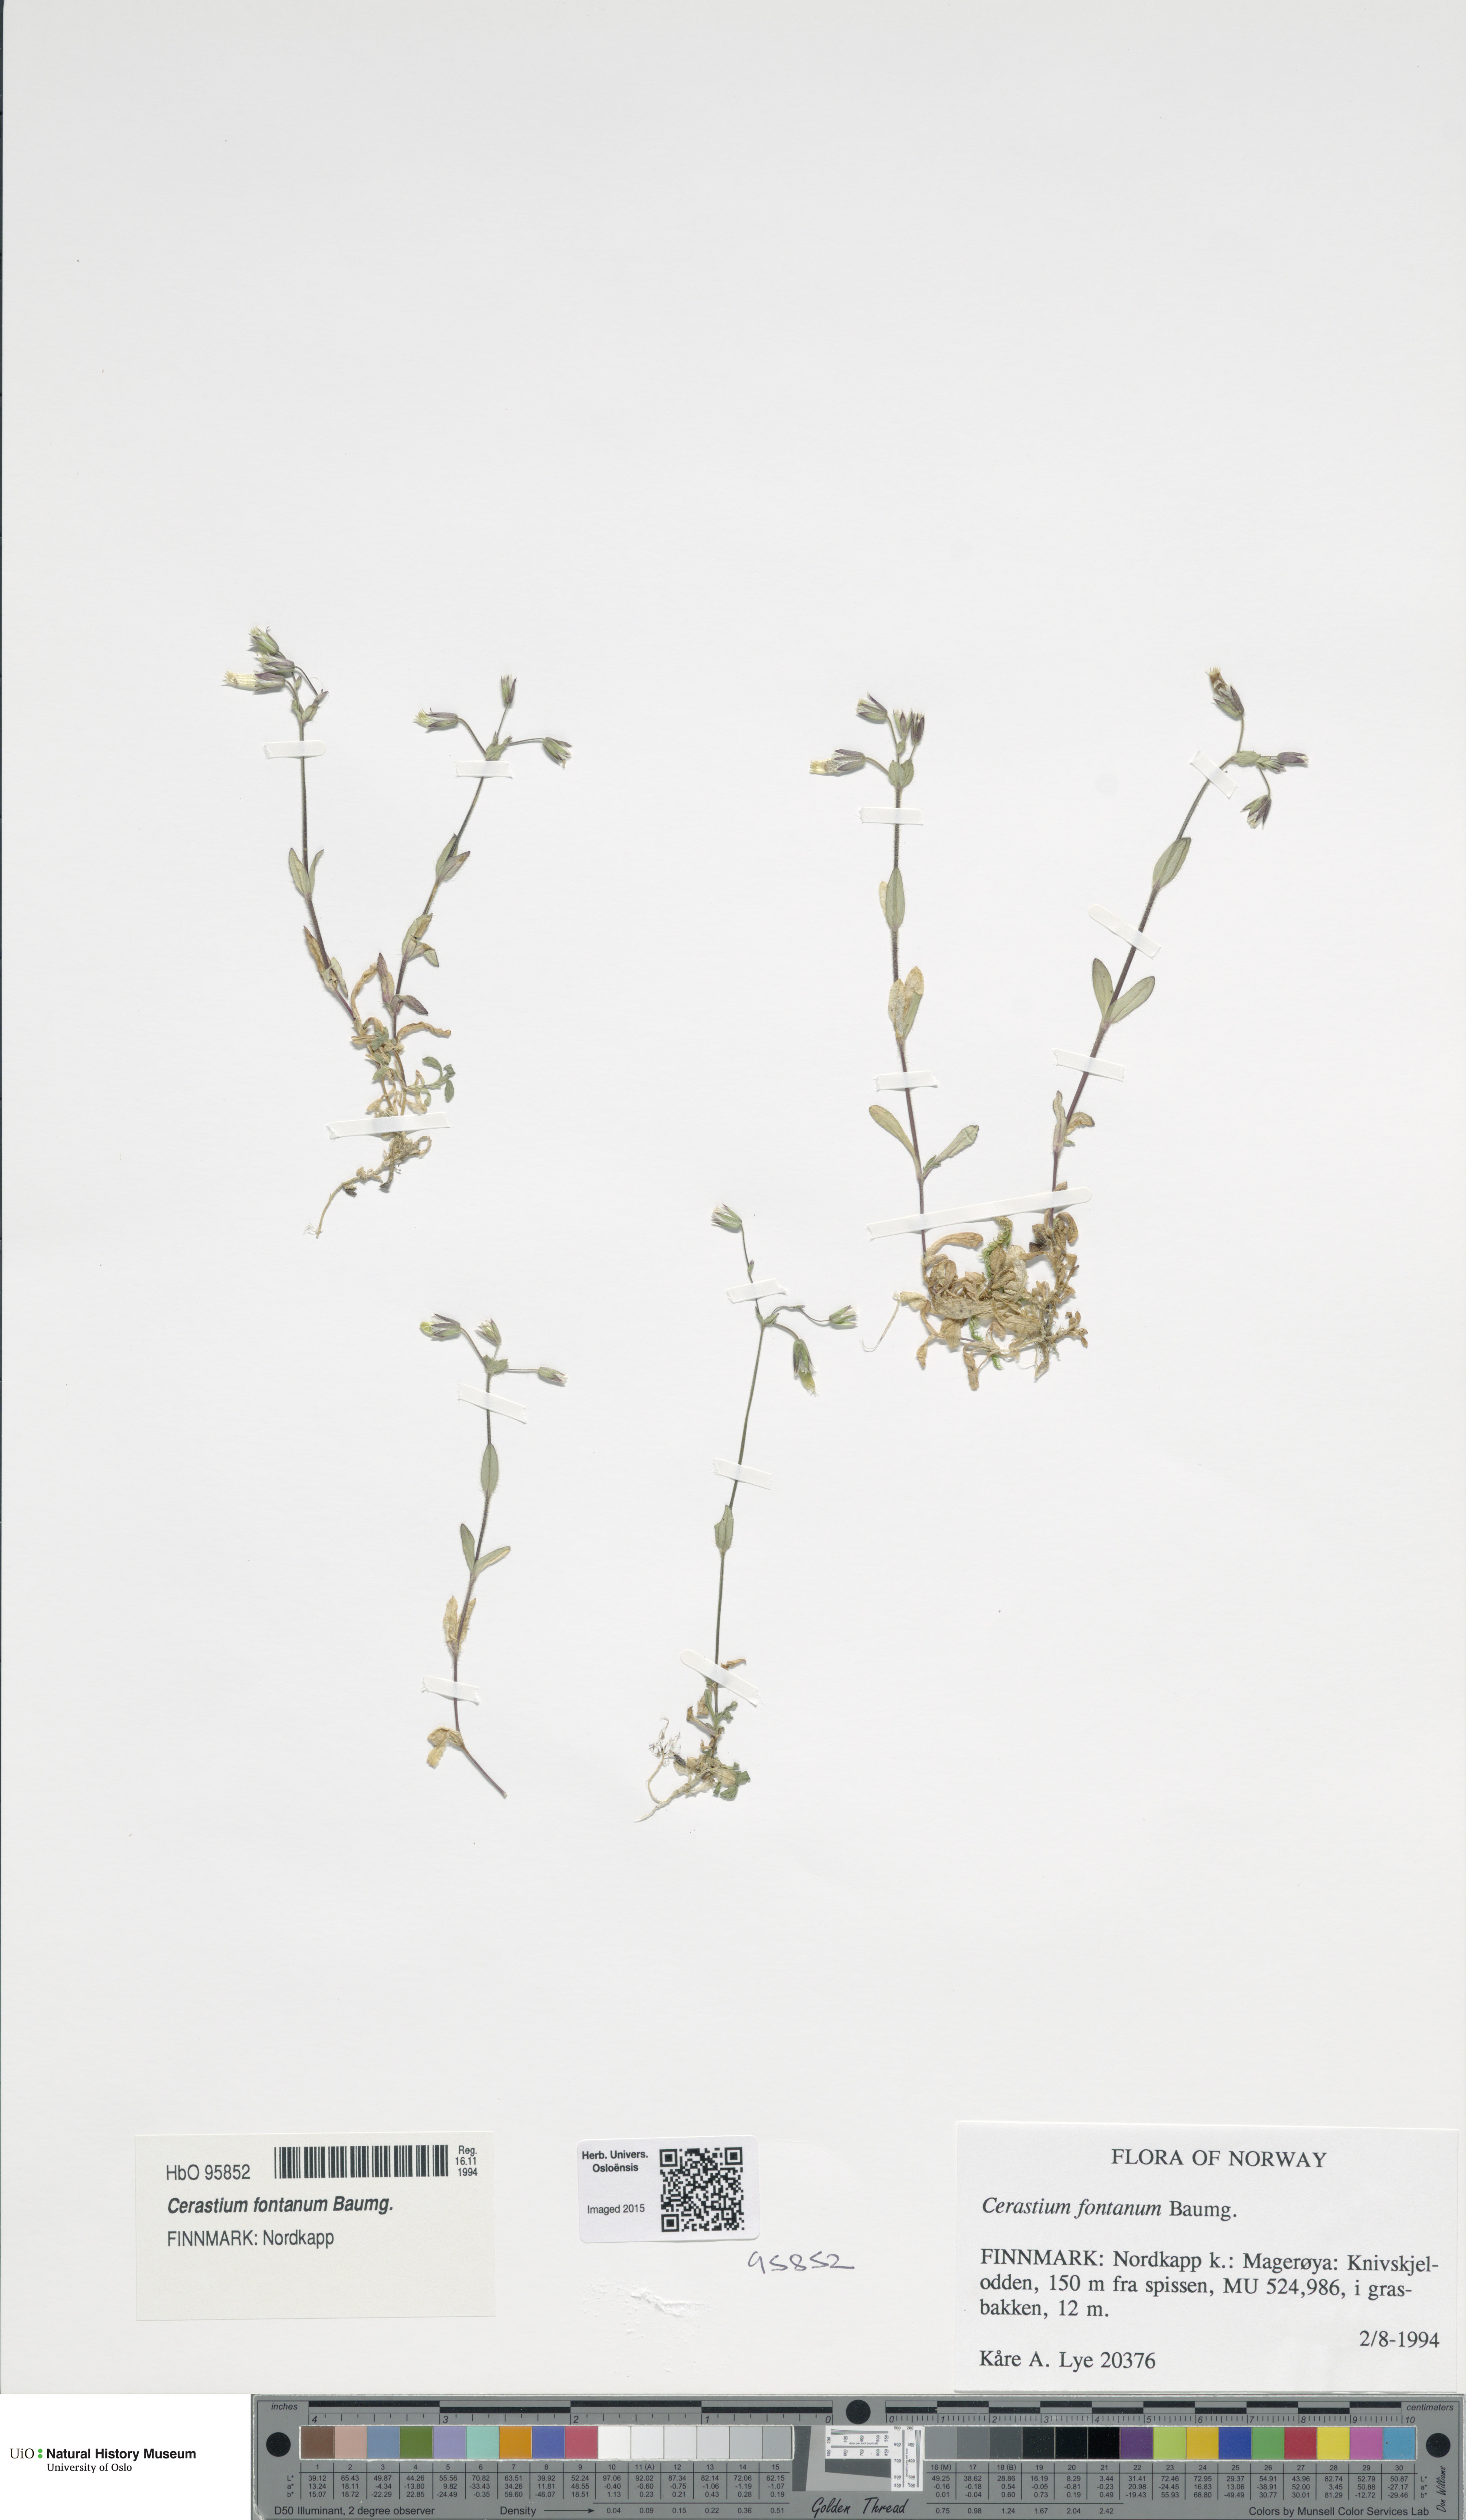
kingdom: Plantae
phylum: Tracheophyta
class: Magnoliopsida
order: Caryophyllales
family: Caryophyllaceae
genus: Cerastium
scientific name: Cerastium fontanum
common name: Common mouse-ear
